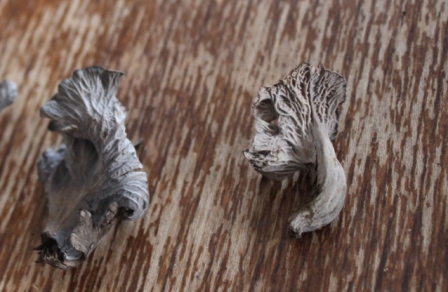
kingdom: Fungi
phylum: Basidiomycota
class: Agaricomycetes
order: Cantharellales
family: Hydnaceae
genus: Cantharellus
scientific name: Cantharellus cinereus
